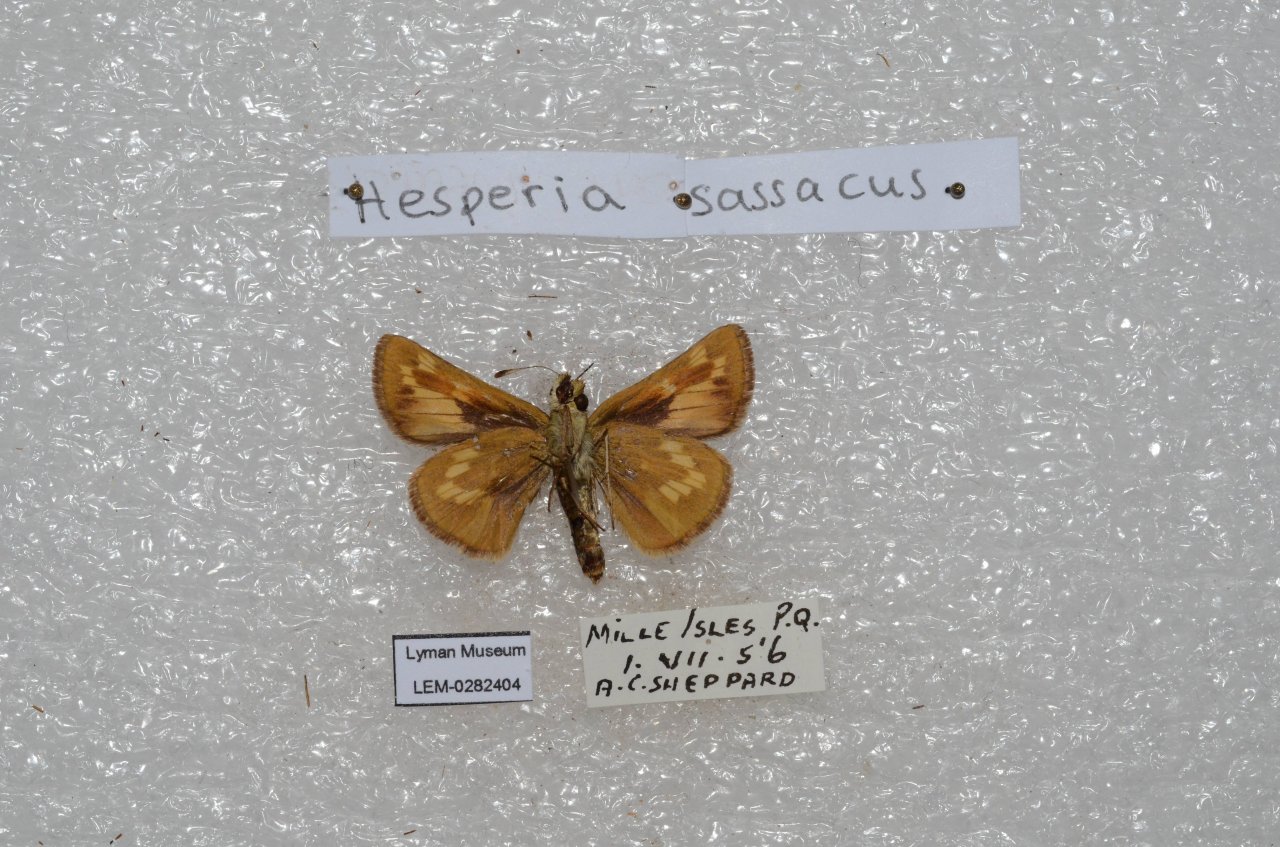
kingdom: Animalia
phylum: Arthropoda
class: Insecta
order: Lepidoptera
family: Hesperiidae
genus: Hesperia
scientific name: Hesperia sassacus
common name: Sassacus Skipper
